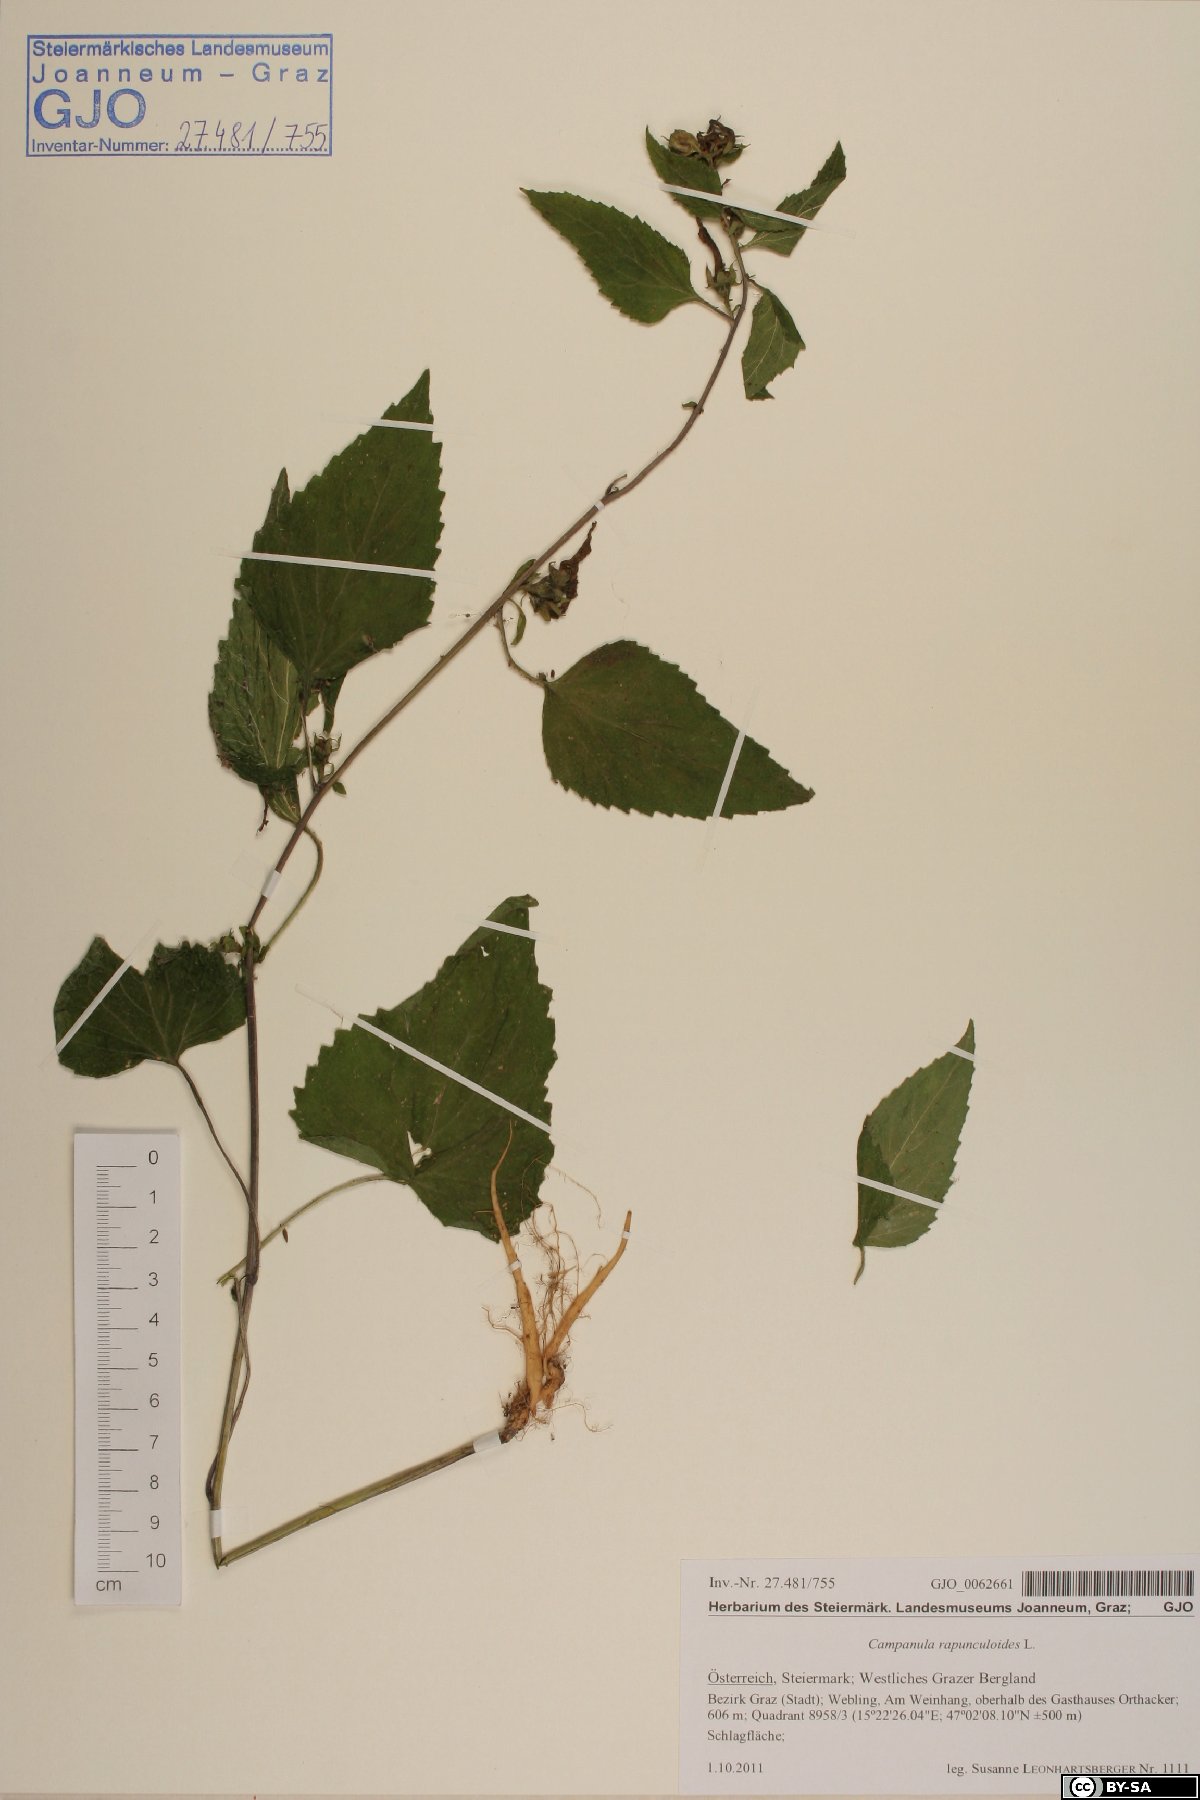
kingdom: Plantae
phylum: Tracheophyta
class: Magnoliopsida
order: Asterales
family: Campanulaceae
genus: Campanula
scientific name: Campanula rapunculoides
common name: Creeping bellflower
